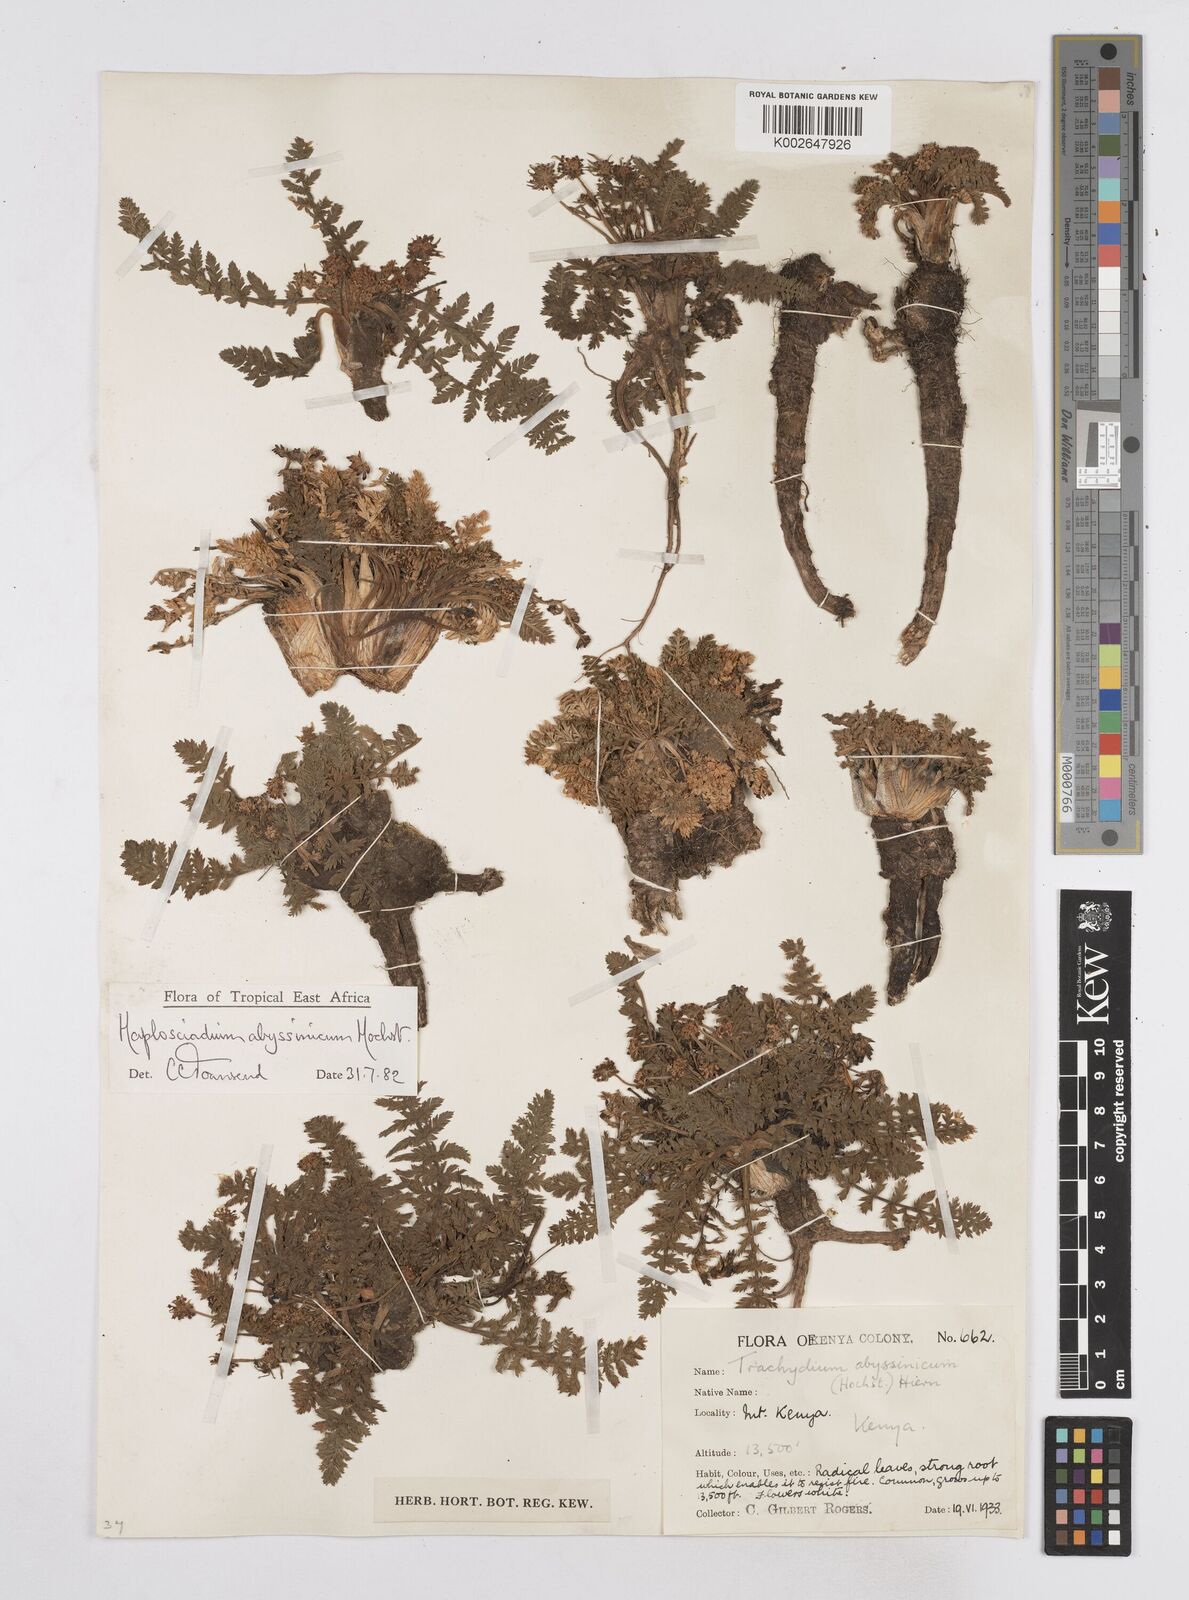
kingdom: Plantae
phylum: Tracheophyta
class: Magnoliopsida
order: Apiales
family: Apiaceae
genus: Haplosciadium
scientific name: Haplosciadium abyssinicum
